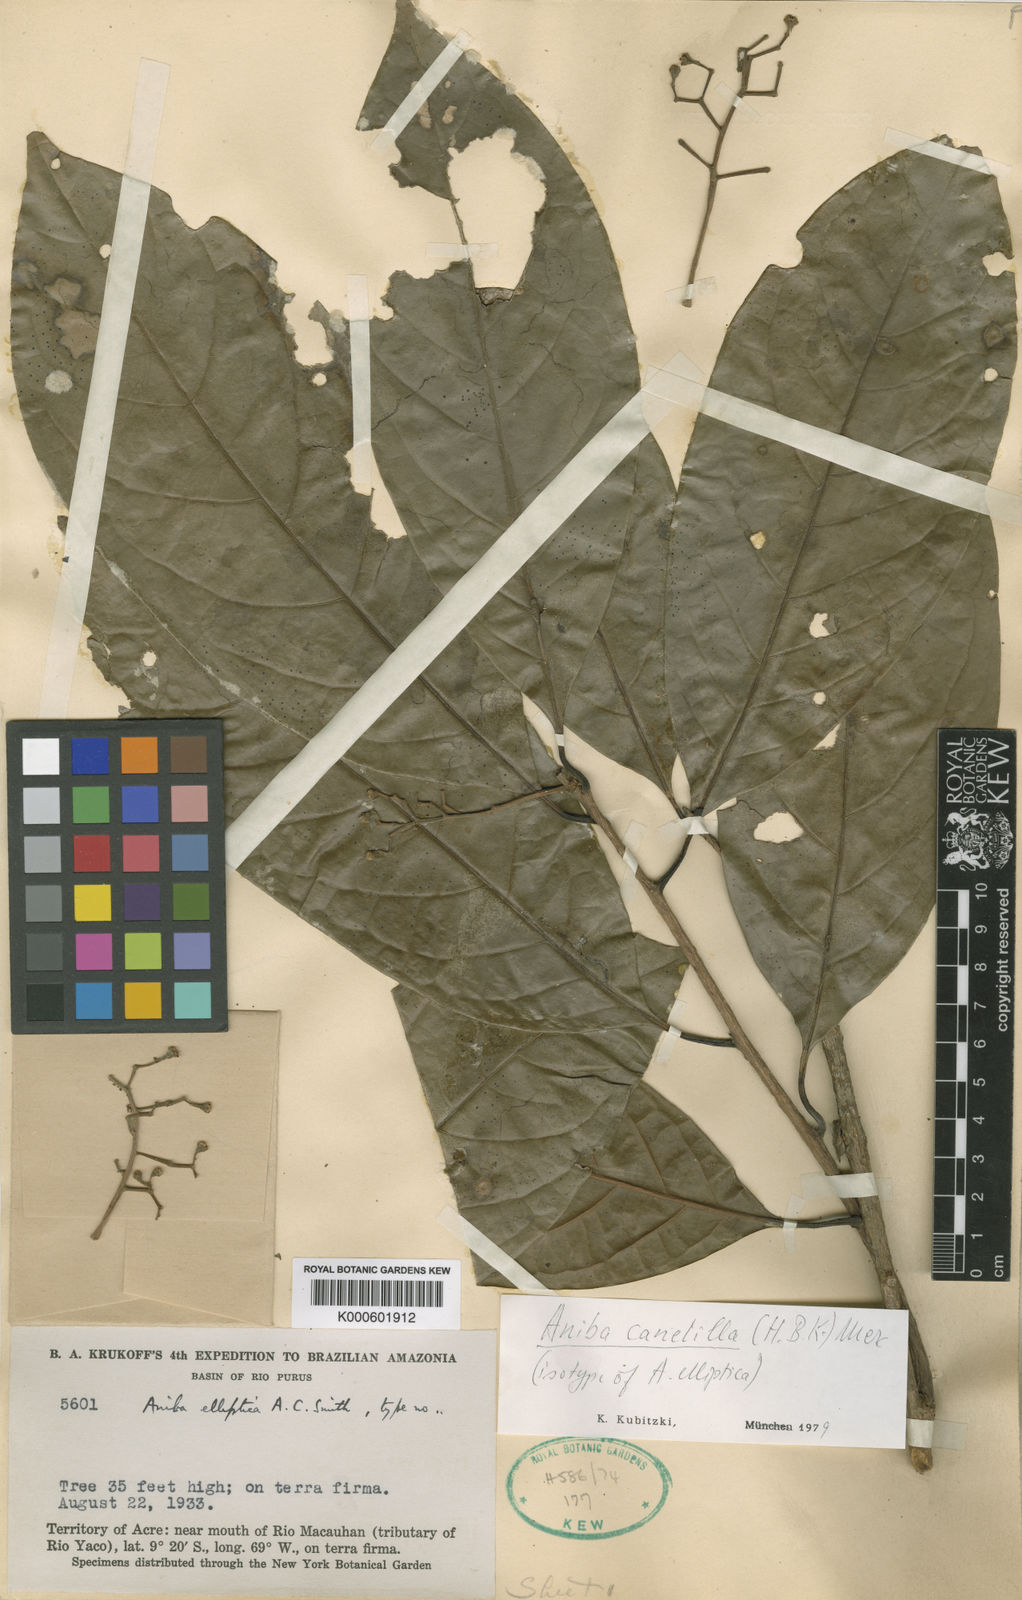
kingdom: Plantae
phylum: Tracheophyta
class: Magnoliopsida
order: Laurales
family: Lauraceae
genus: Aniba
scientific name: Aniba canelilla
